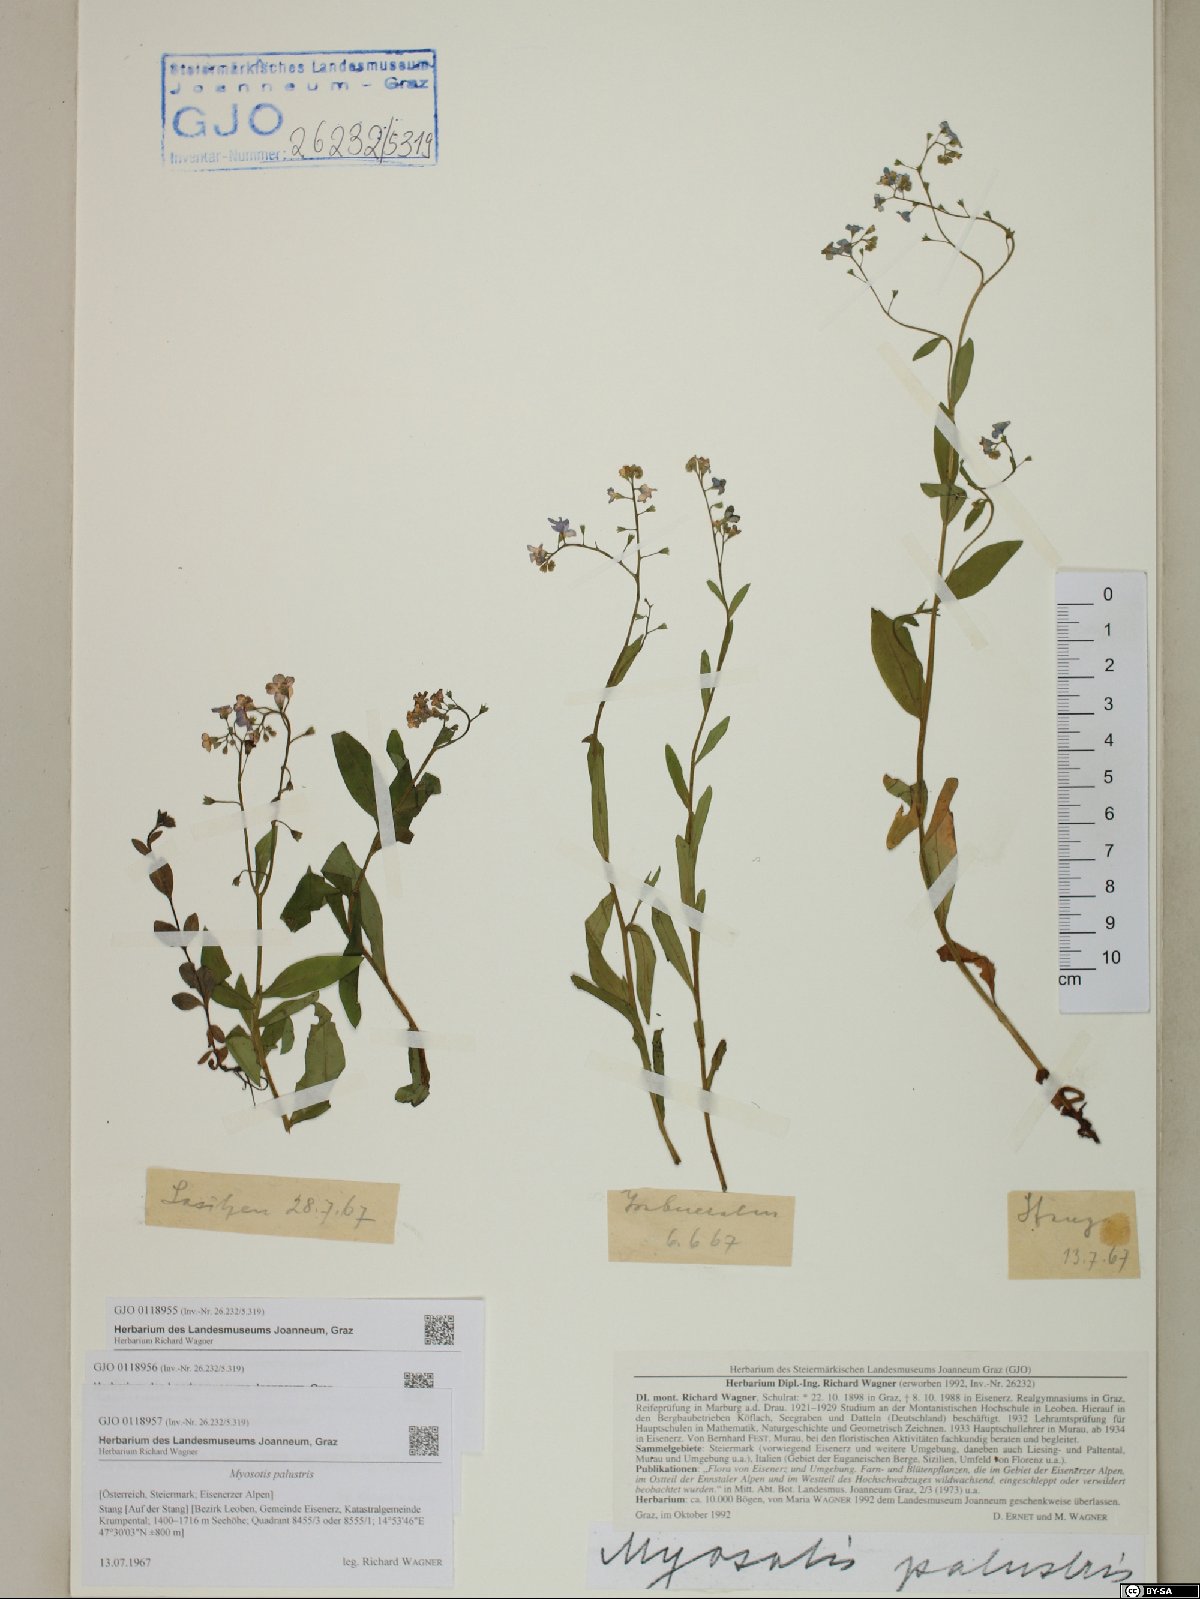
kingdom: Plantae
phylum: Tracheophyta
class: Magnoliopsida
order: Boraginales
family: Boraginaceae
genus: Myosotis
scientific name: Myosotis scorpioides
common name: Water forget-me-not
